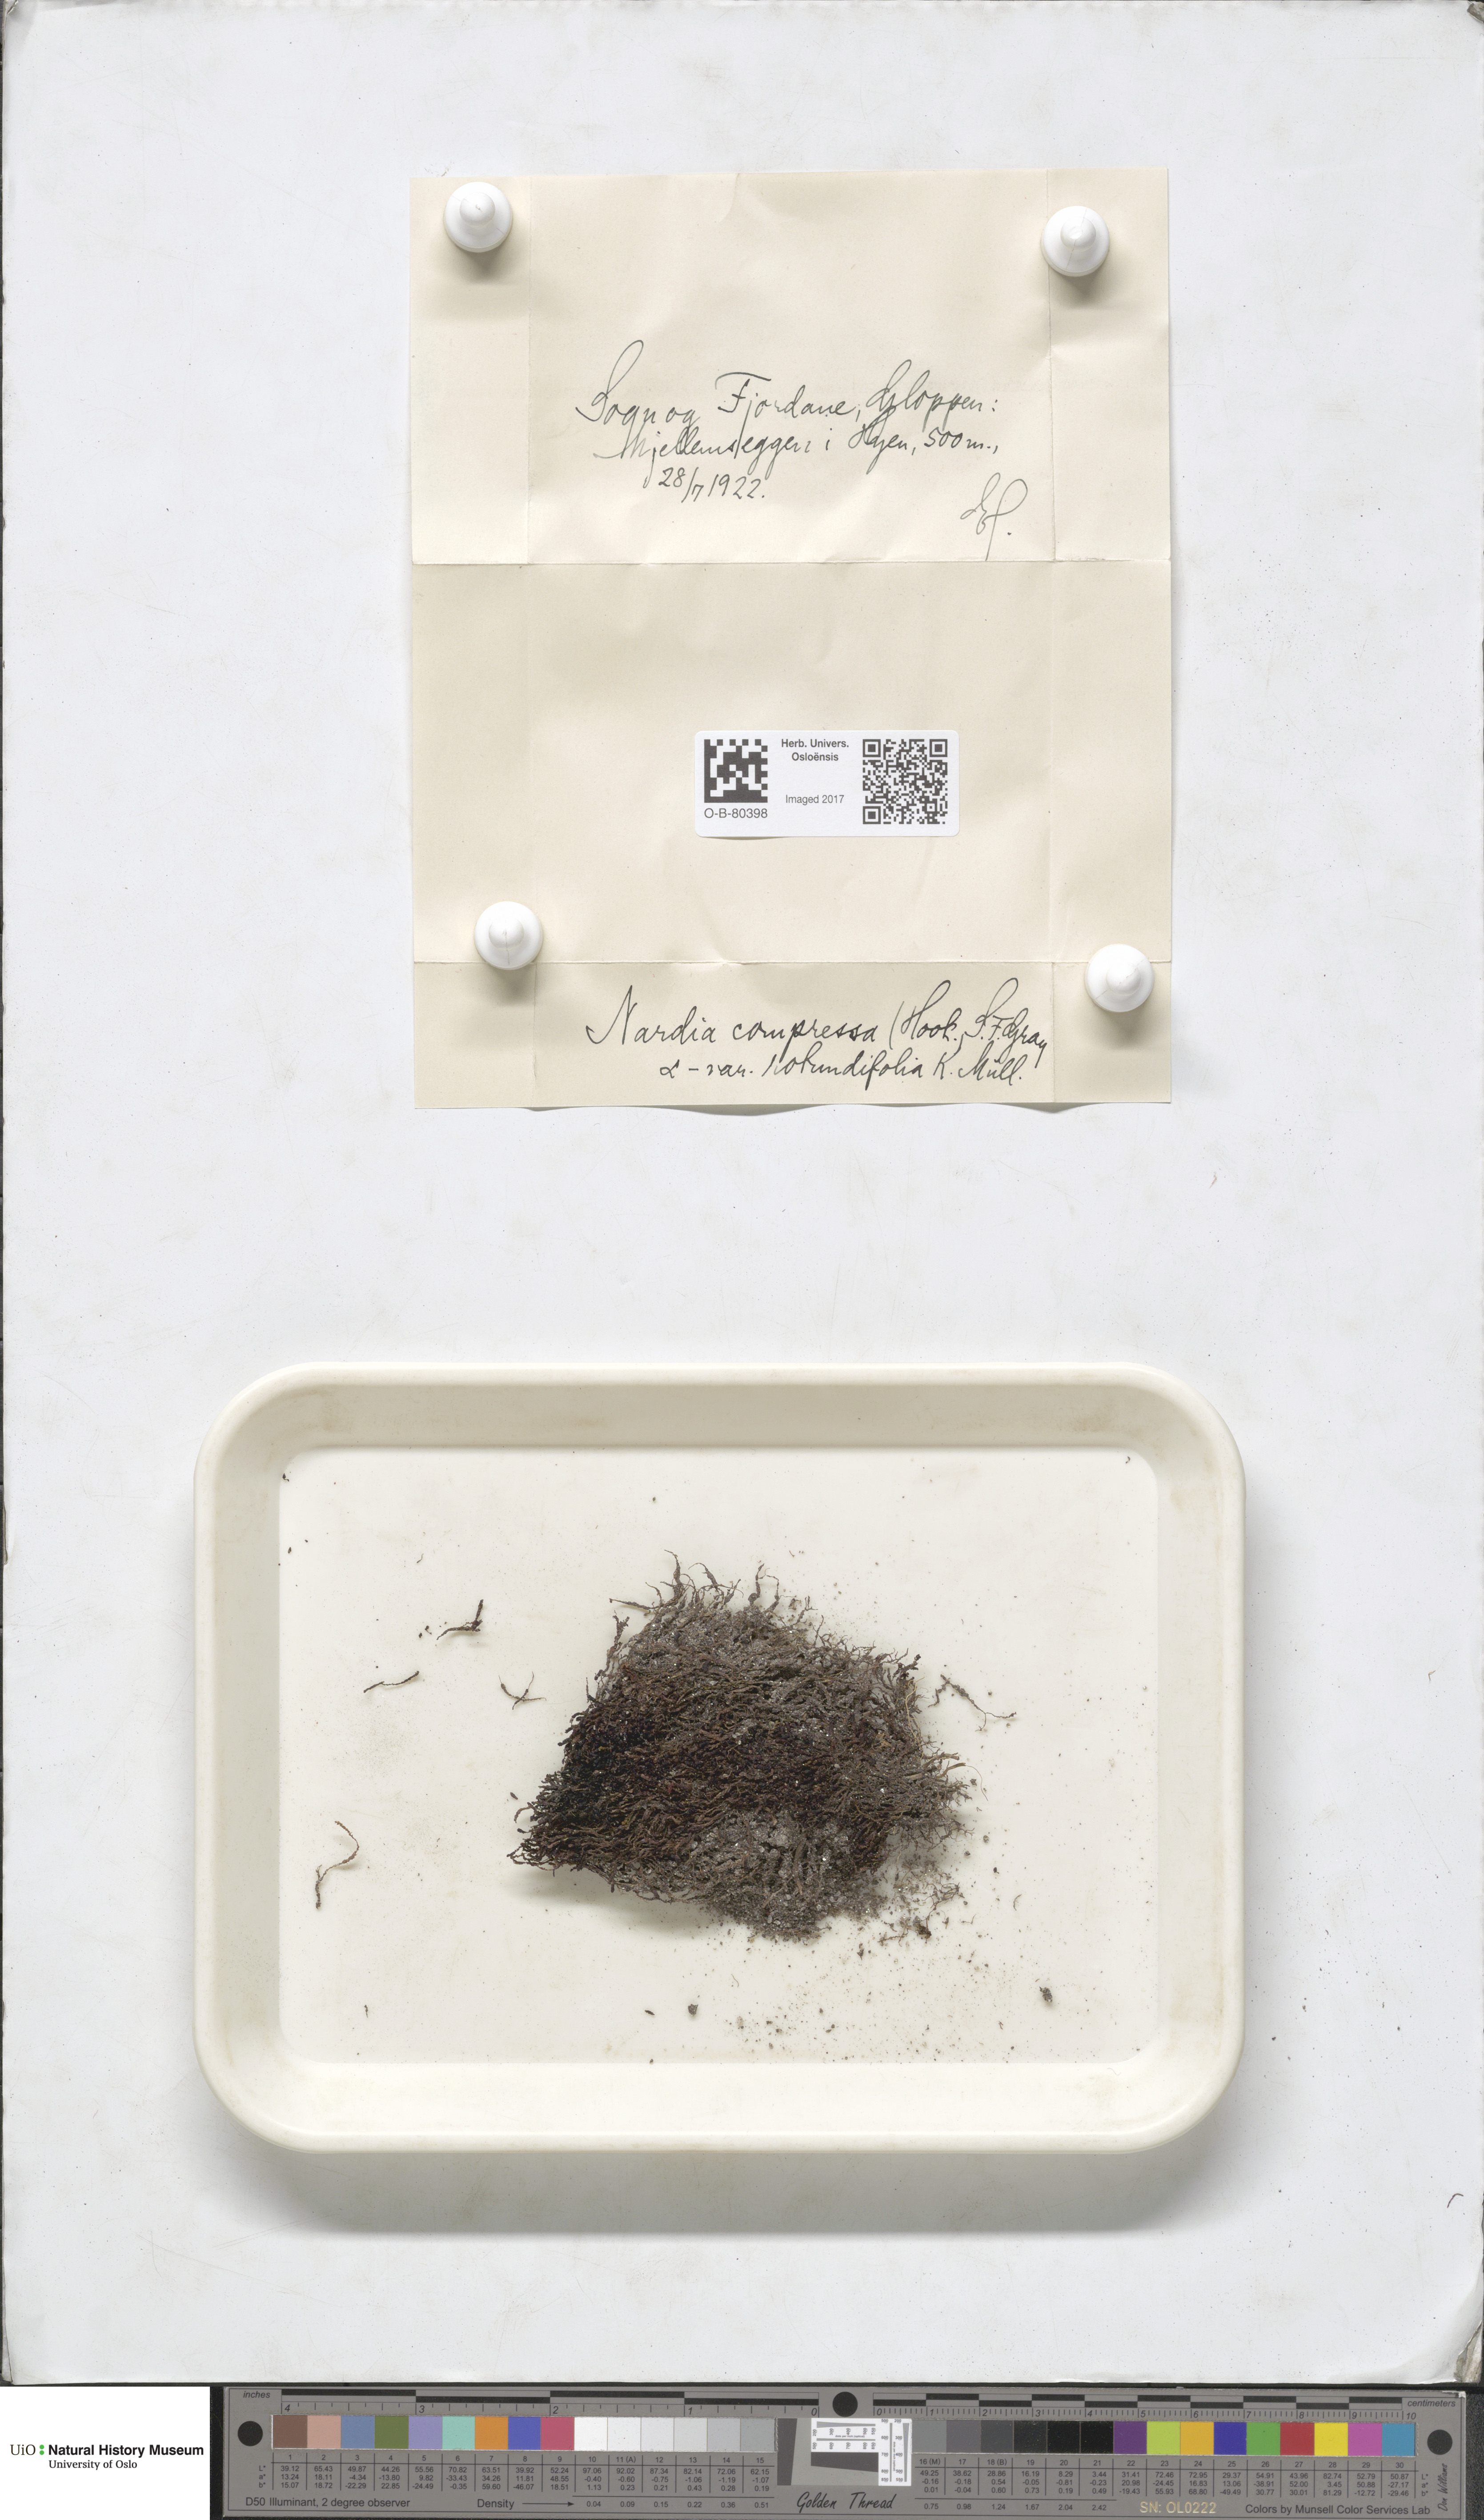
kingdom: Plantae
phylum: Marchantiophyta
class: Jungermanniopsida
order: Jungermanniales
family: Gymnomitriaceae
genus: Nardia
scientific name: Nardia compressa
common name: Compressed flapwort
